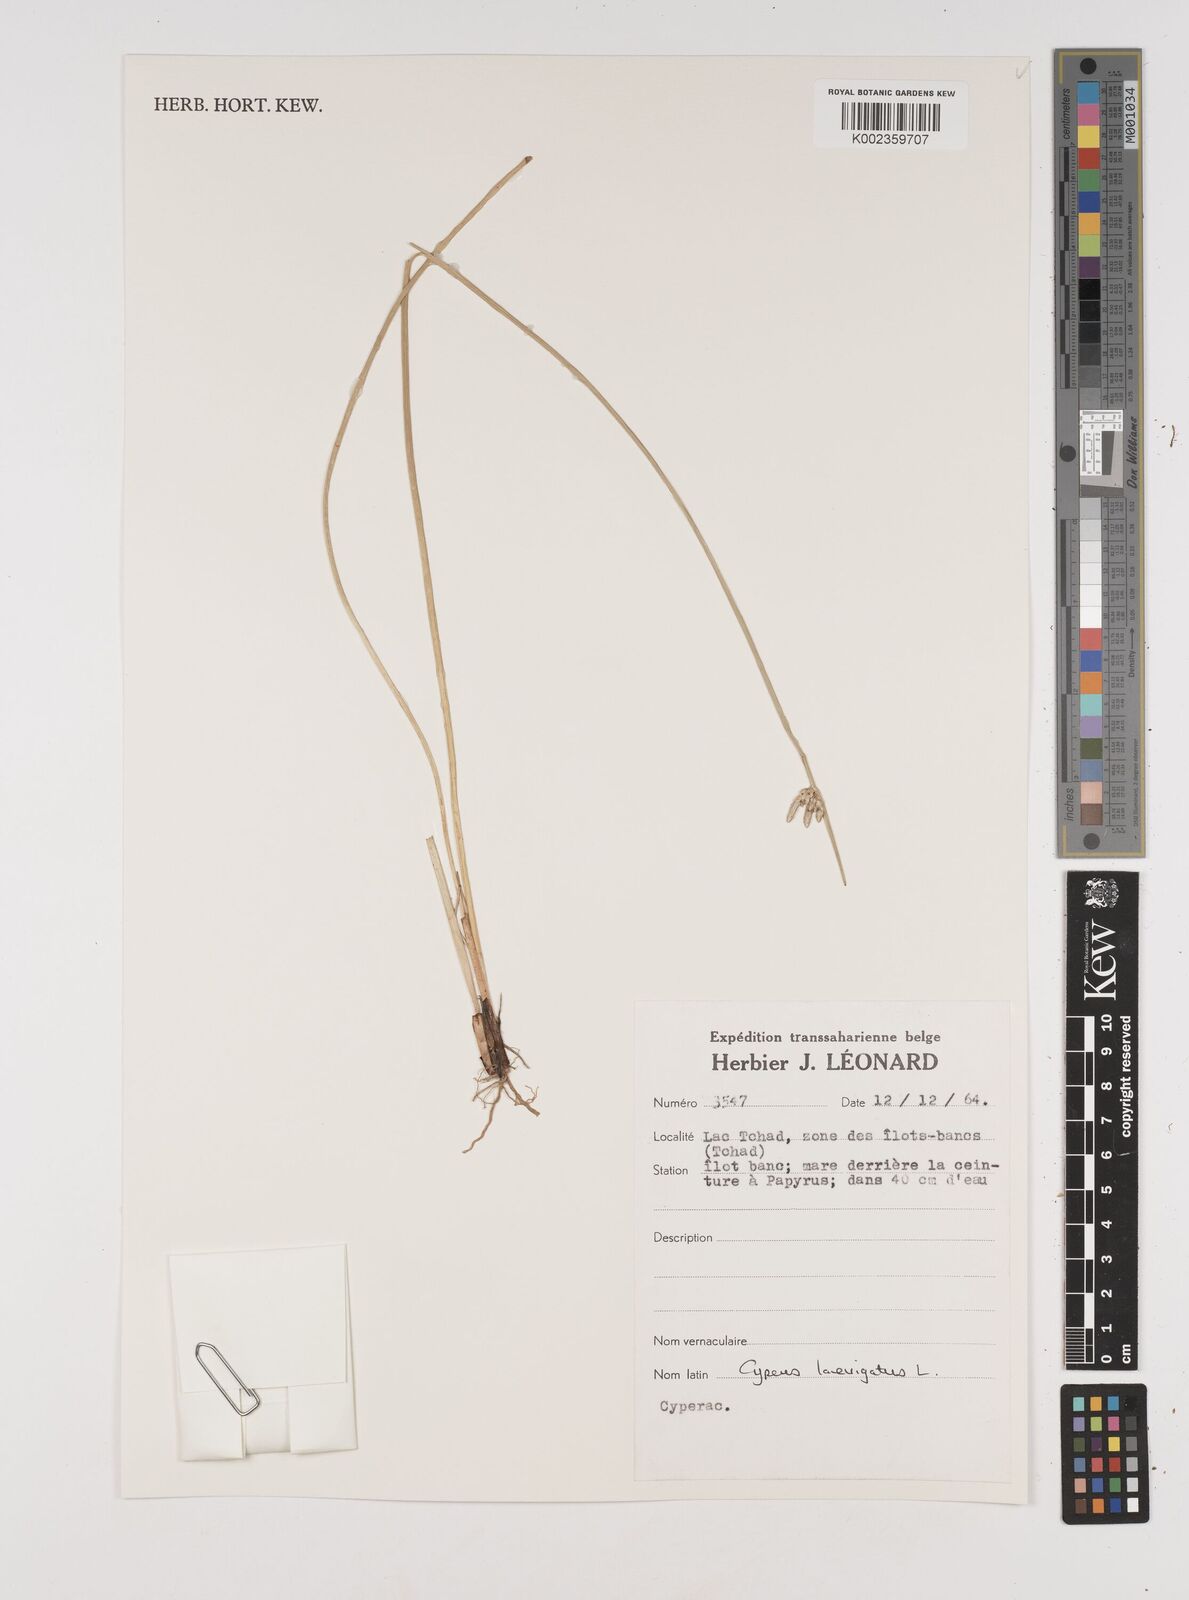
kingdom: Plantae
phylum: Tracheophyta
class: Liliopsida
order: Poales
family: Cyperaceae
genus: Cyperus
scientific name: Cyperus laevigatus
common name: Smooth flat sedge
